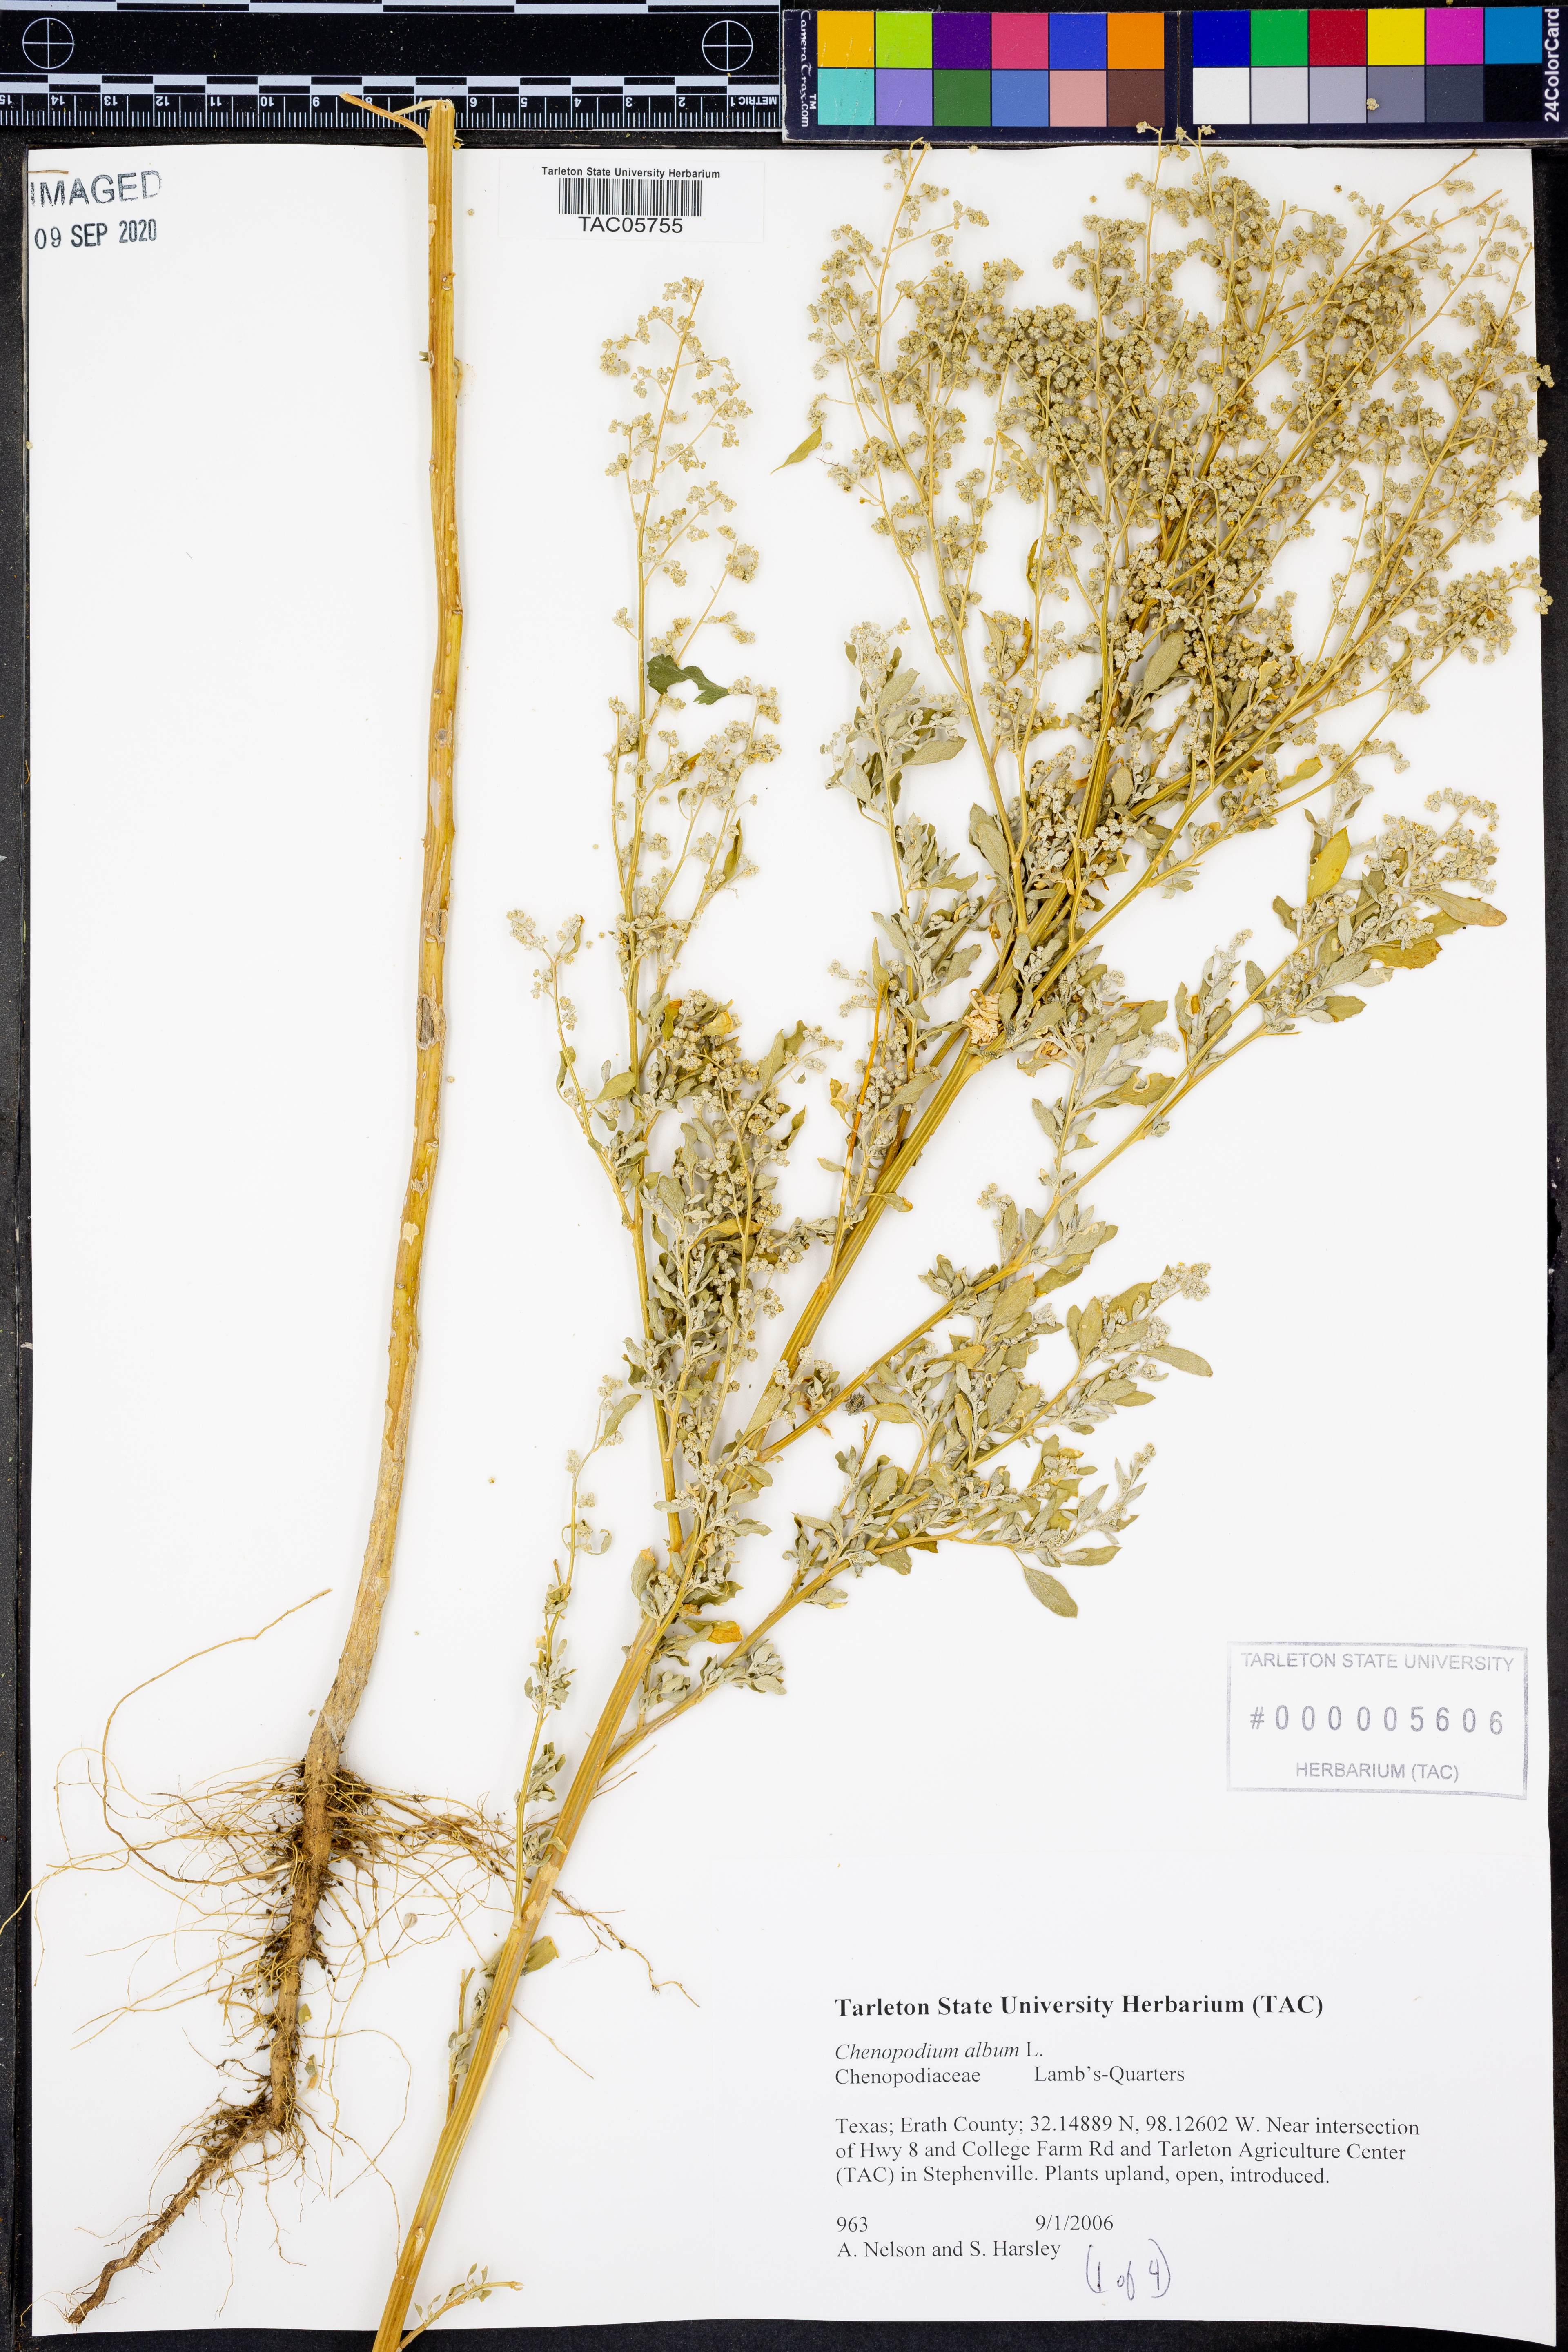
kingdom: Plantae
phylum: Tracheophyta
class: Magnoliopsida
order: Caryophyllales
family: Amaranthaceae
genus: Chenopodium
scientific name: Chenopodium album
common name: Fat-hen
